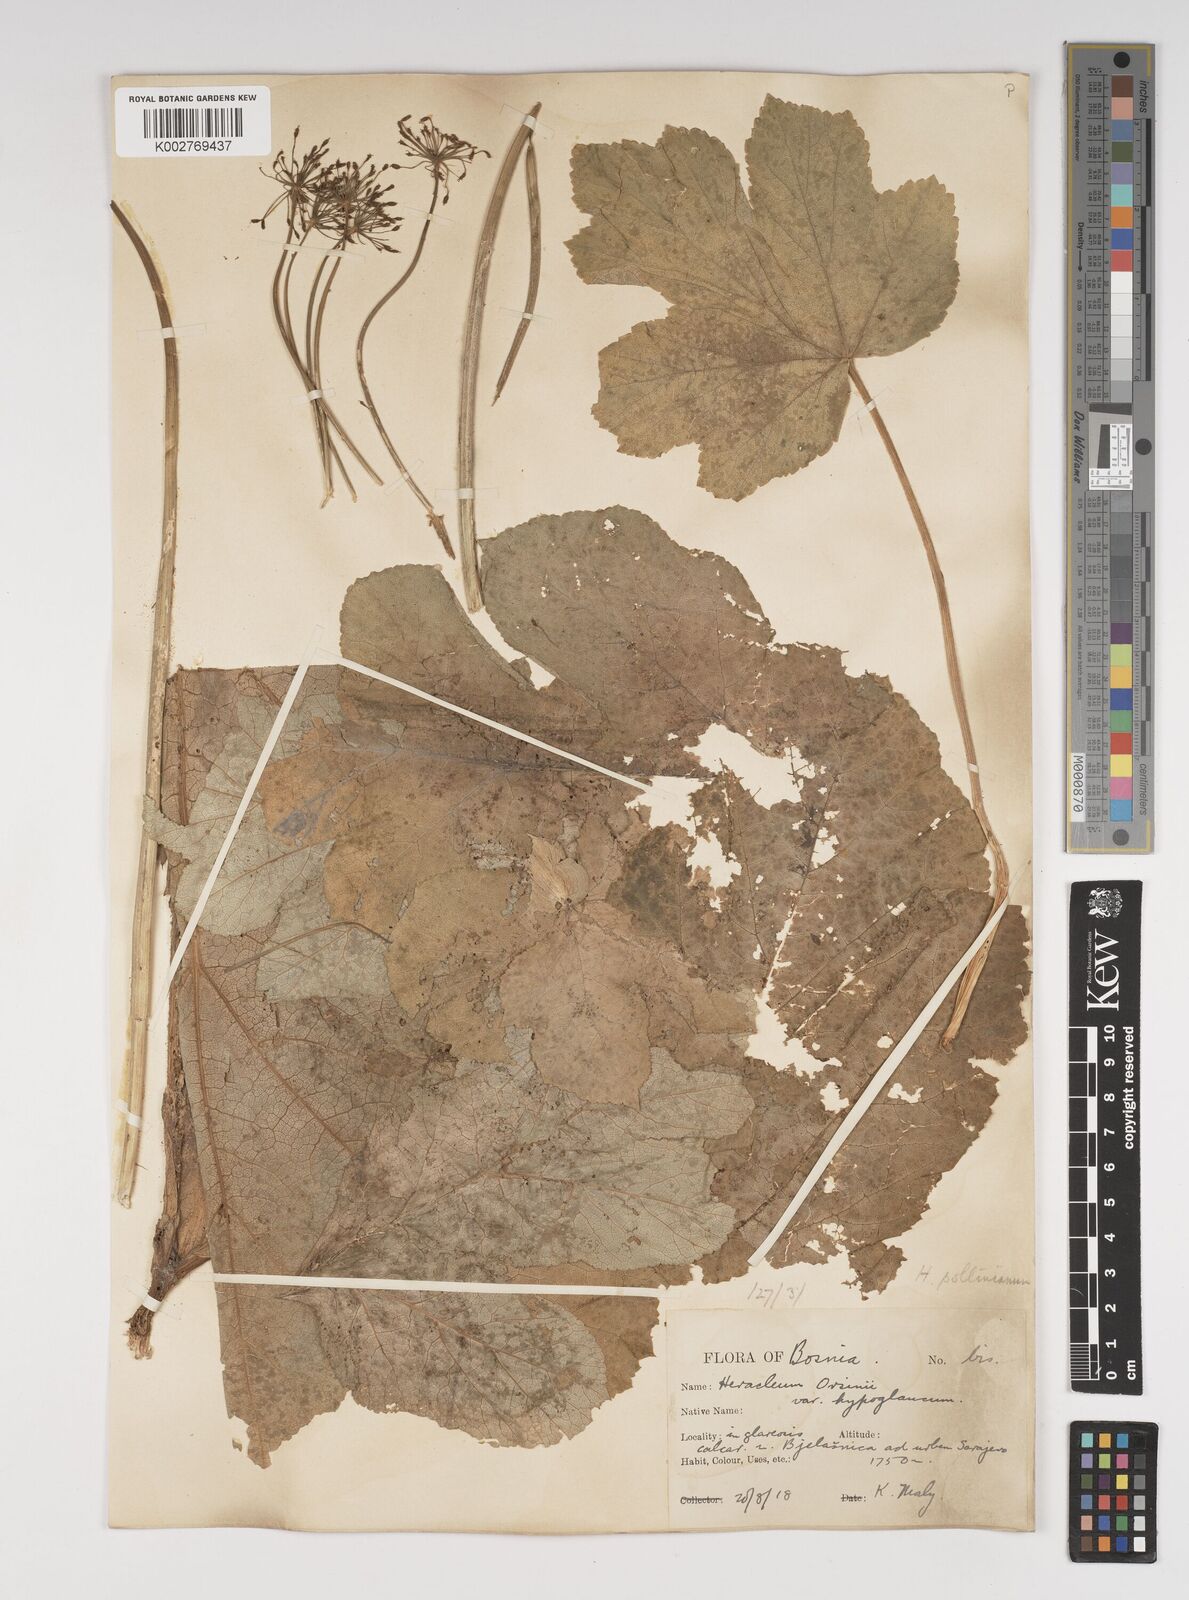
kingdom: Plantae
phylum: Tracheophyta
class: Magnoliopsida
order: Apiales
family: Apiaceae
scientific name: Apiaceae
